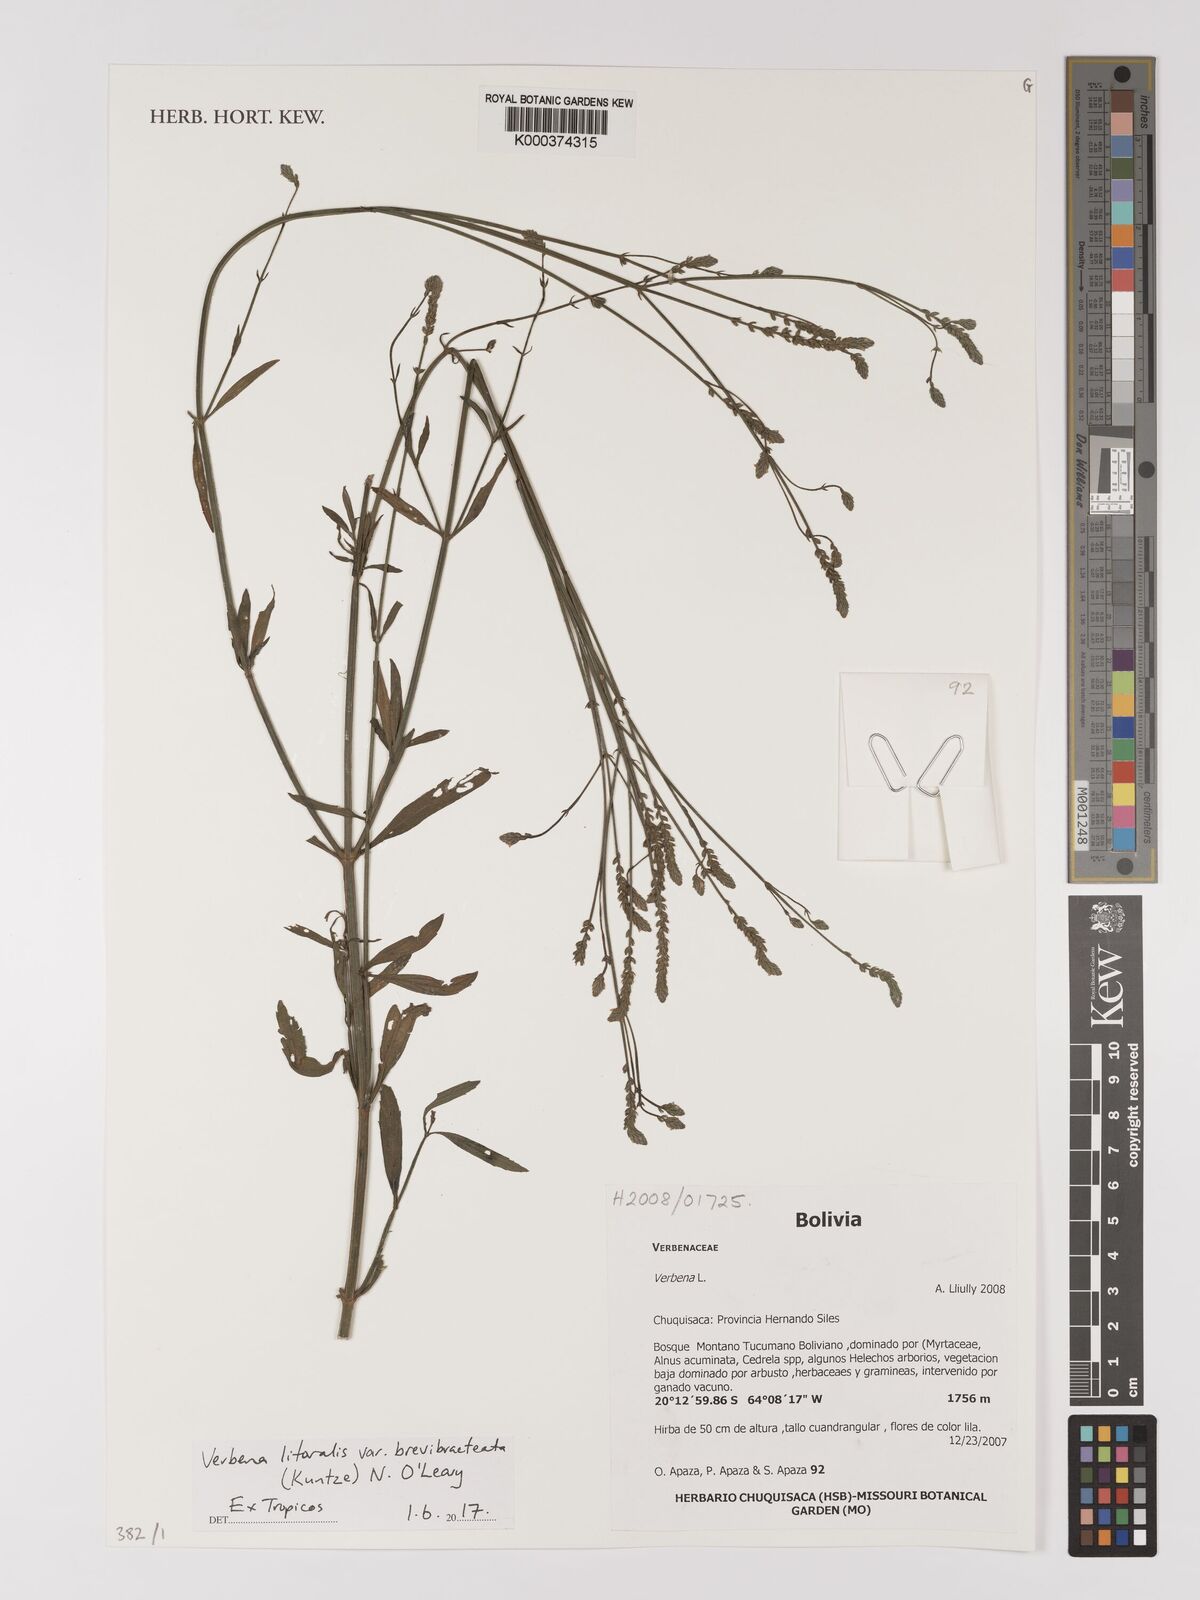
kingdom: Plantae
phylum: Tracheophyta
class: Magnoliopsida
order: Lamiales
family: Verbenaceae
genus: Verbena
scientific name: Verbena incompta
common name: Purpletop vervain
